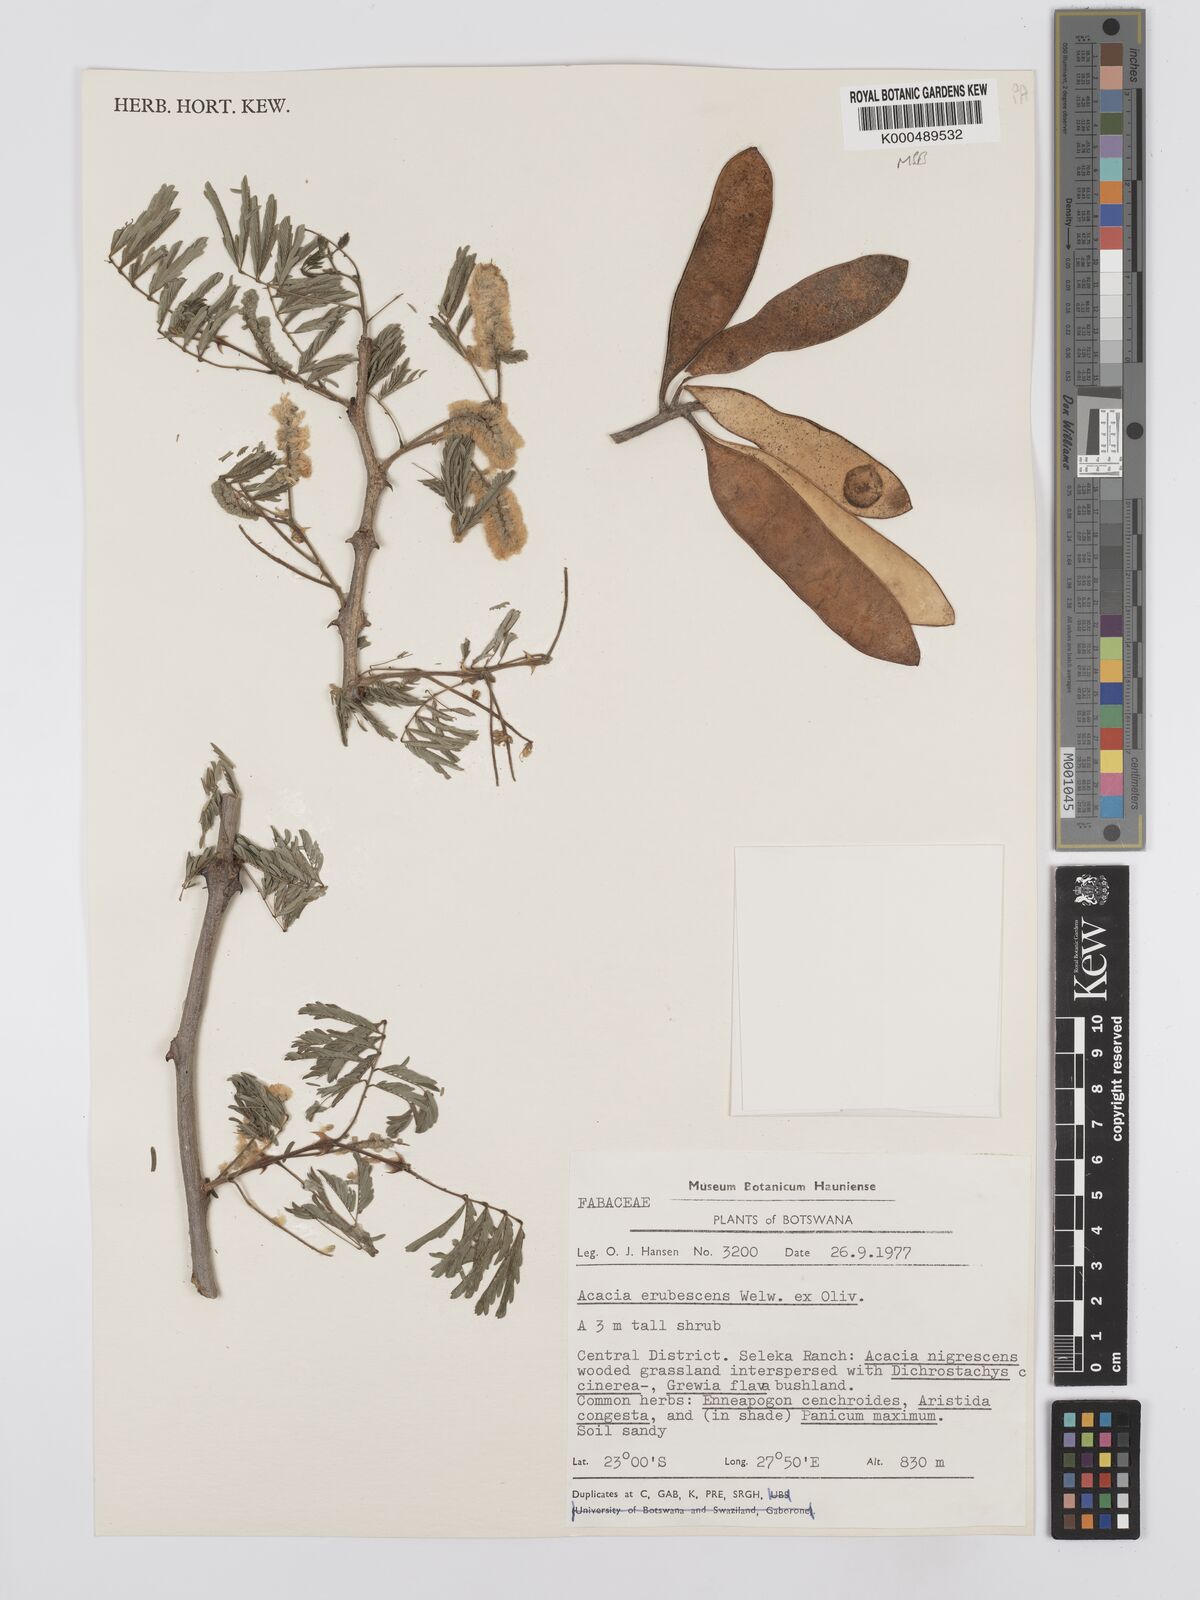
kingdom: Plantae
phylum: Tracheophyta
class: Magnoliopsida
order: Fabales
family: Fabaceae
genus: Senegalia
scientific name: Senegalia erubescens
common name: Bluethorn
